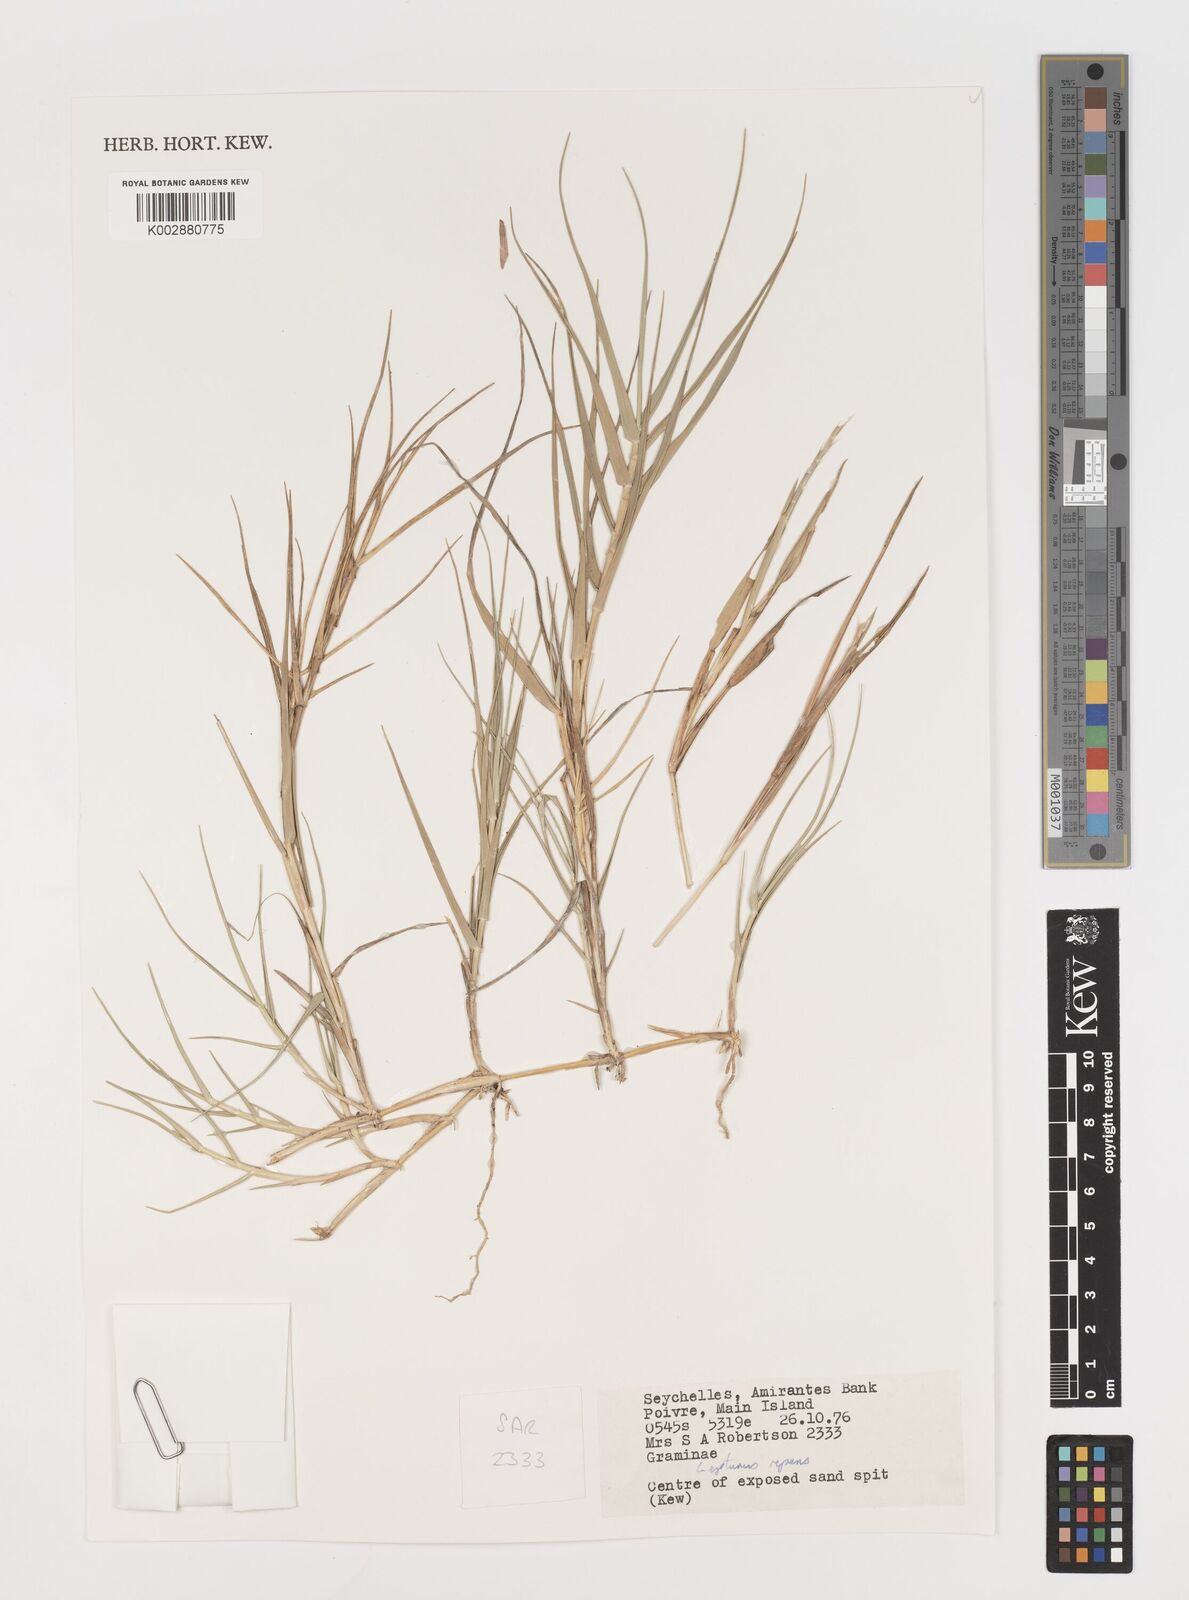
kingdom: Plantae
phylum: Tracheophyta
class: Liliopsida
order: Poales
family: Poaceae
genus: Lepturus
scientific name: Lepturus repens
